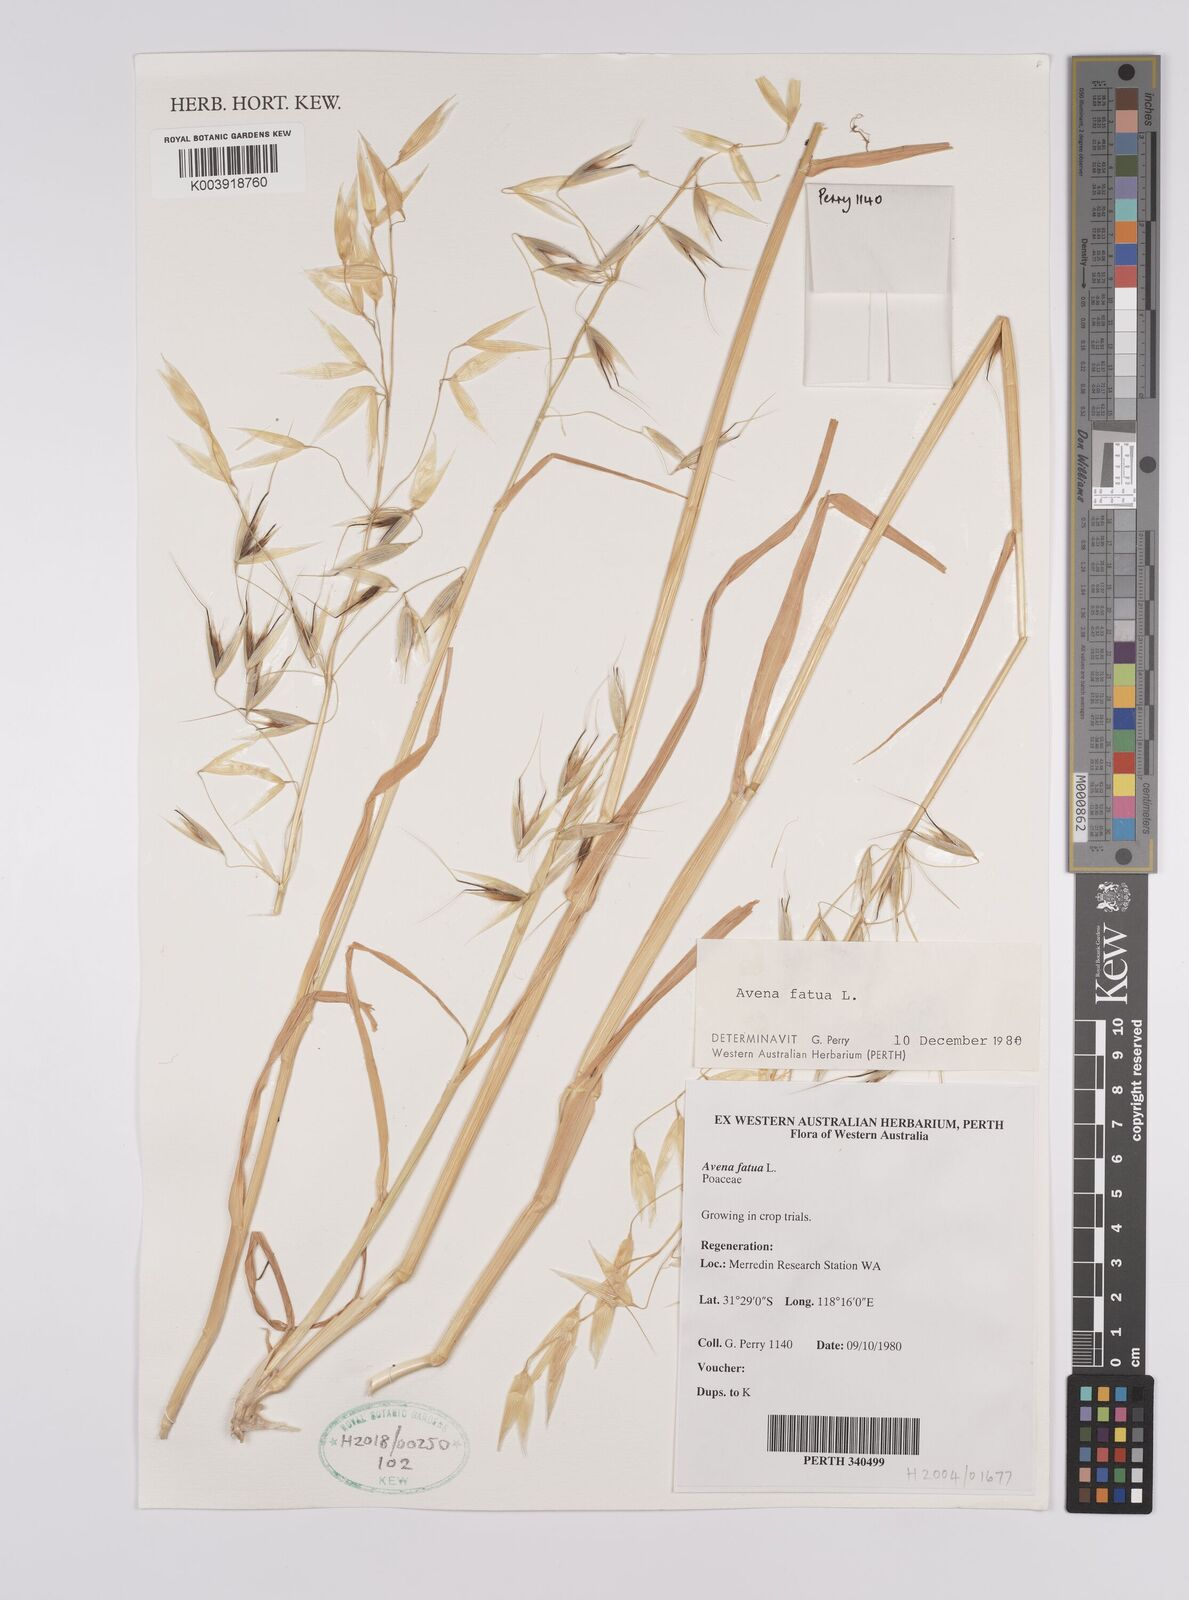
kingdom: Plantae
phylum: Tracheophyta
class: Liliopsida
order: Poales
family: Poaceae
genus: Avena
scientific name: Avena fatua
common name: Wild oat
